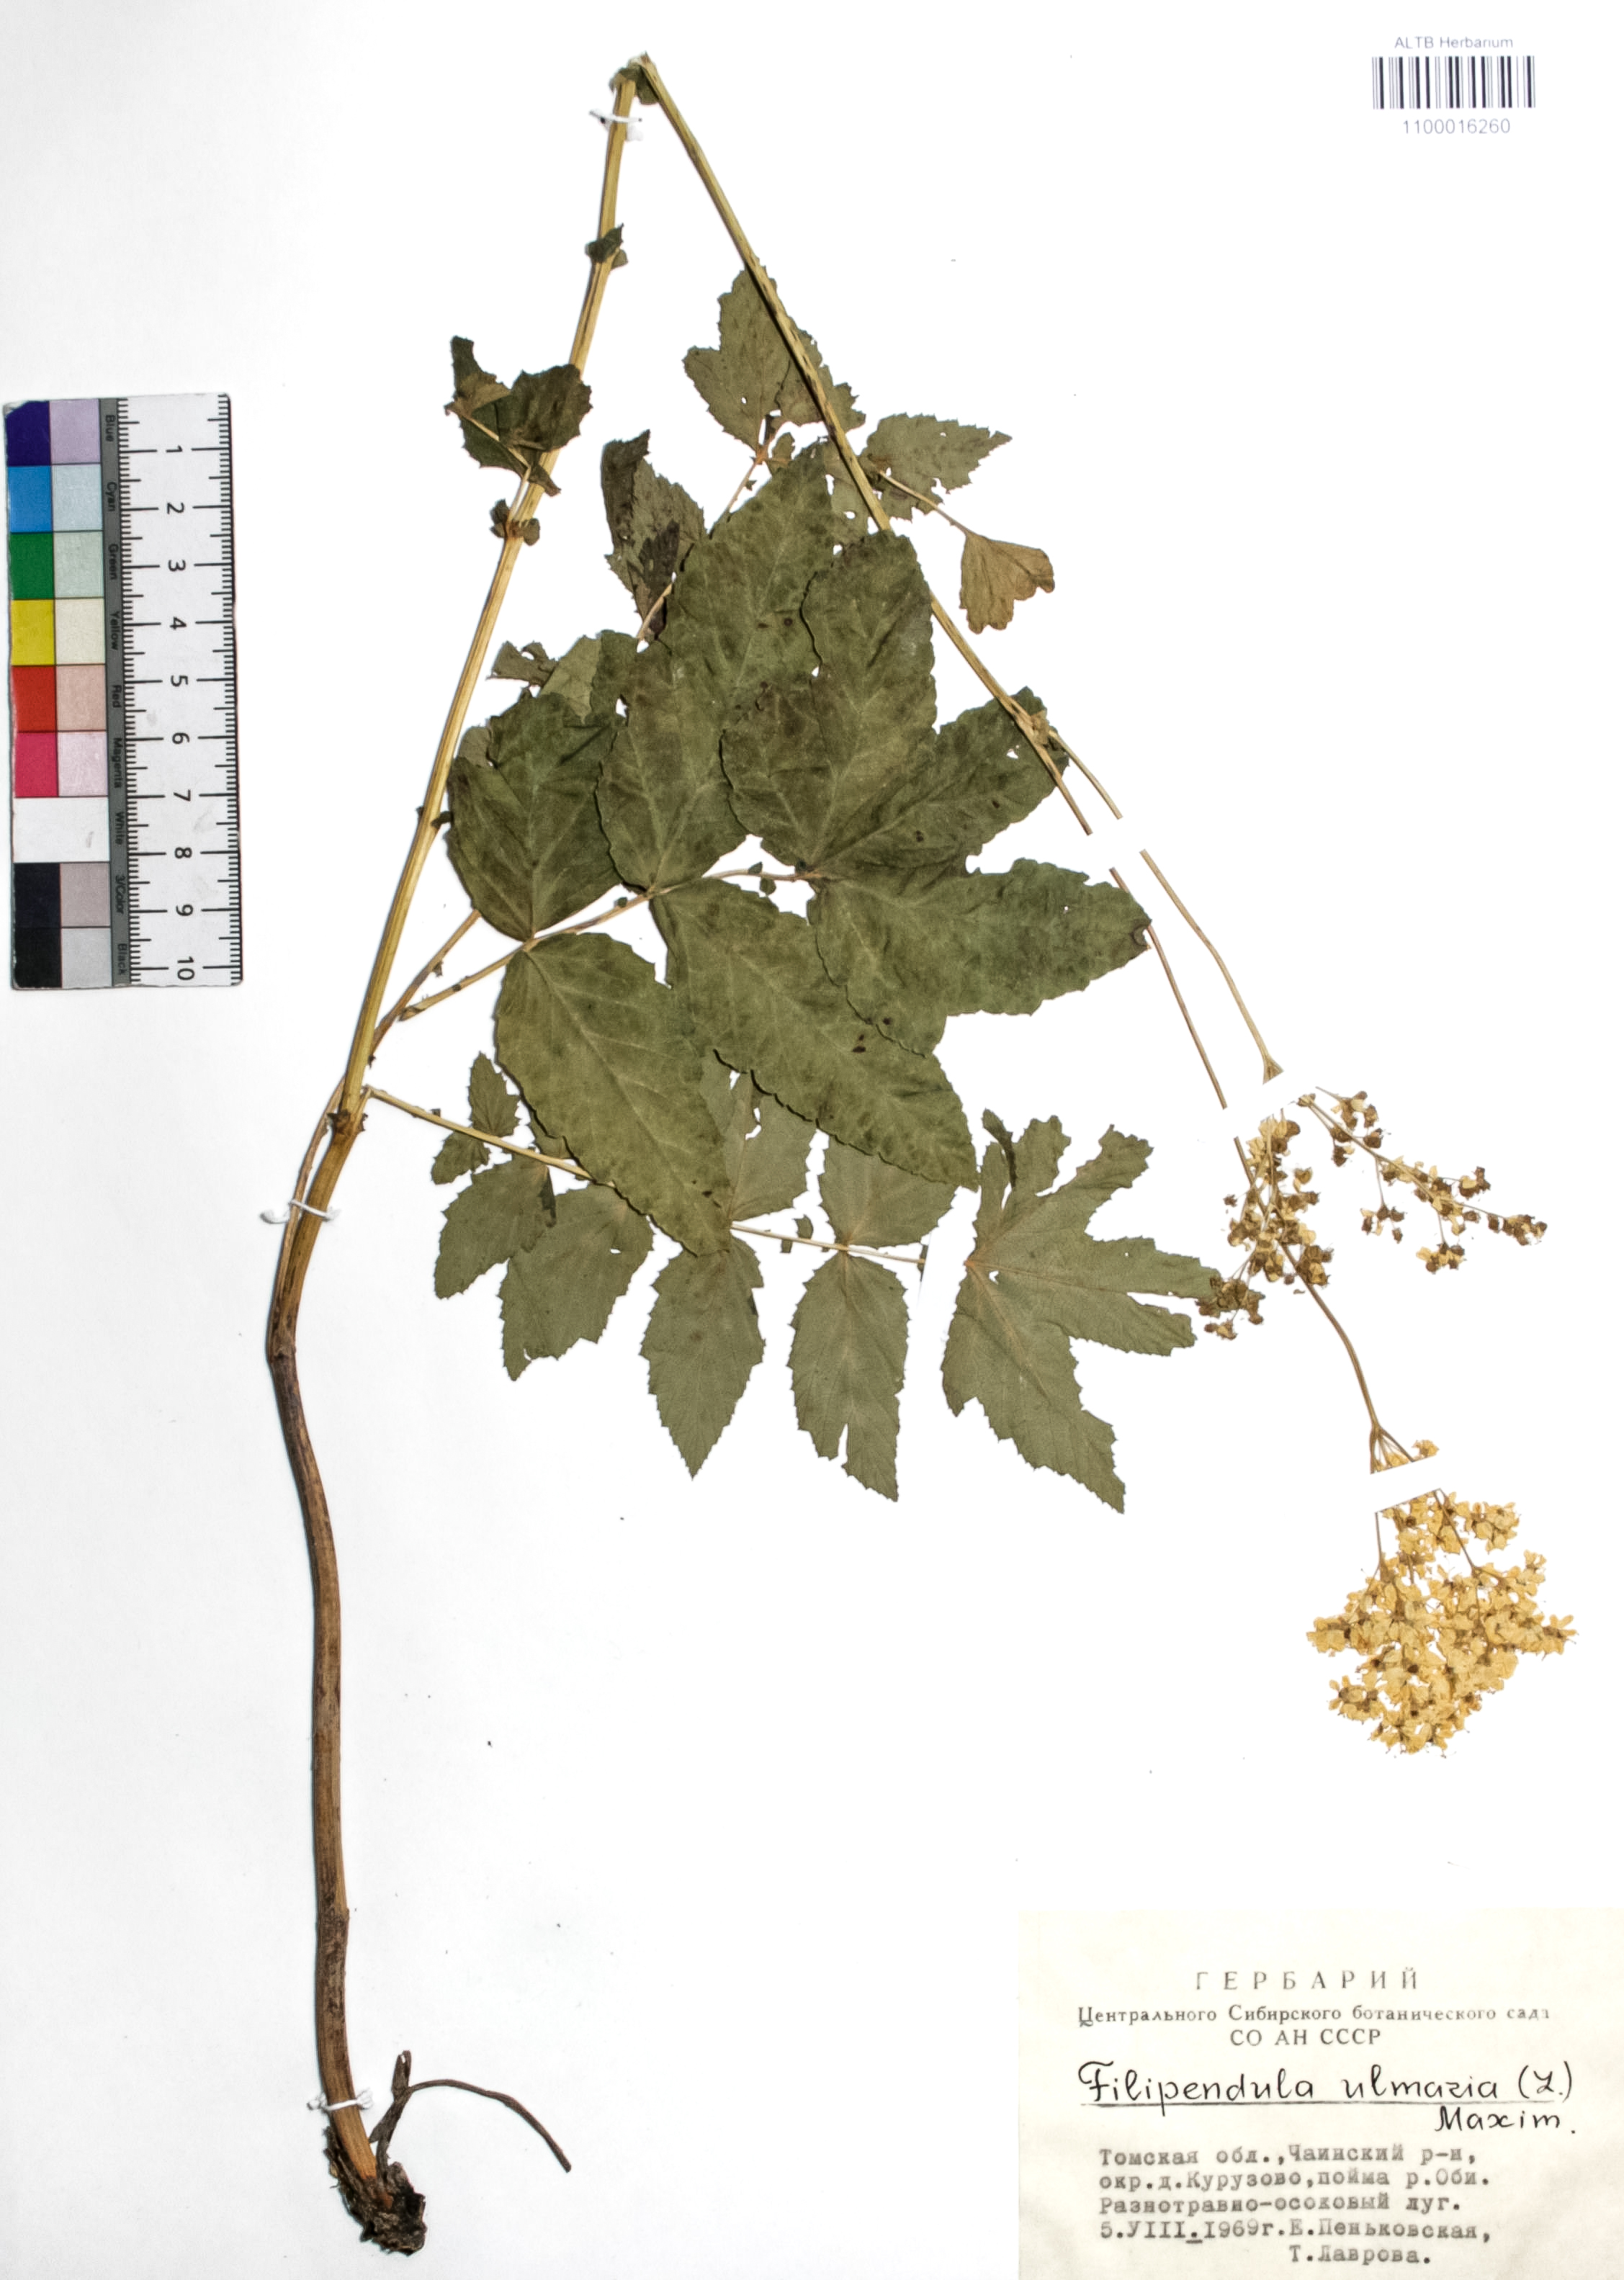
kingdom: Plantae
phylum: Tracheophyta
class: Magnoliopsida
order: Rosales
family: Rosaceae
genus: Filipendula
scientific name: Filipendula ulmaria
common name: Meadowsweet
